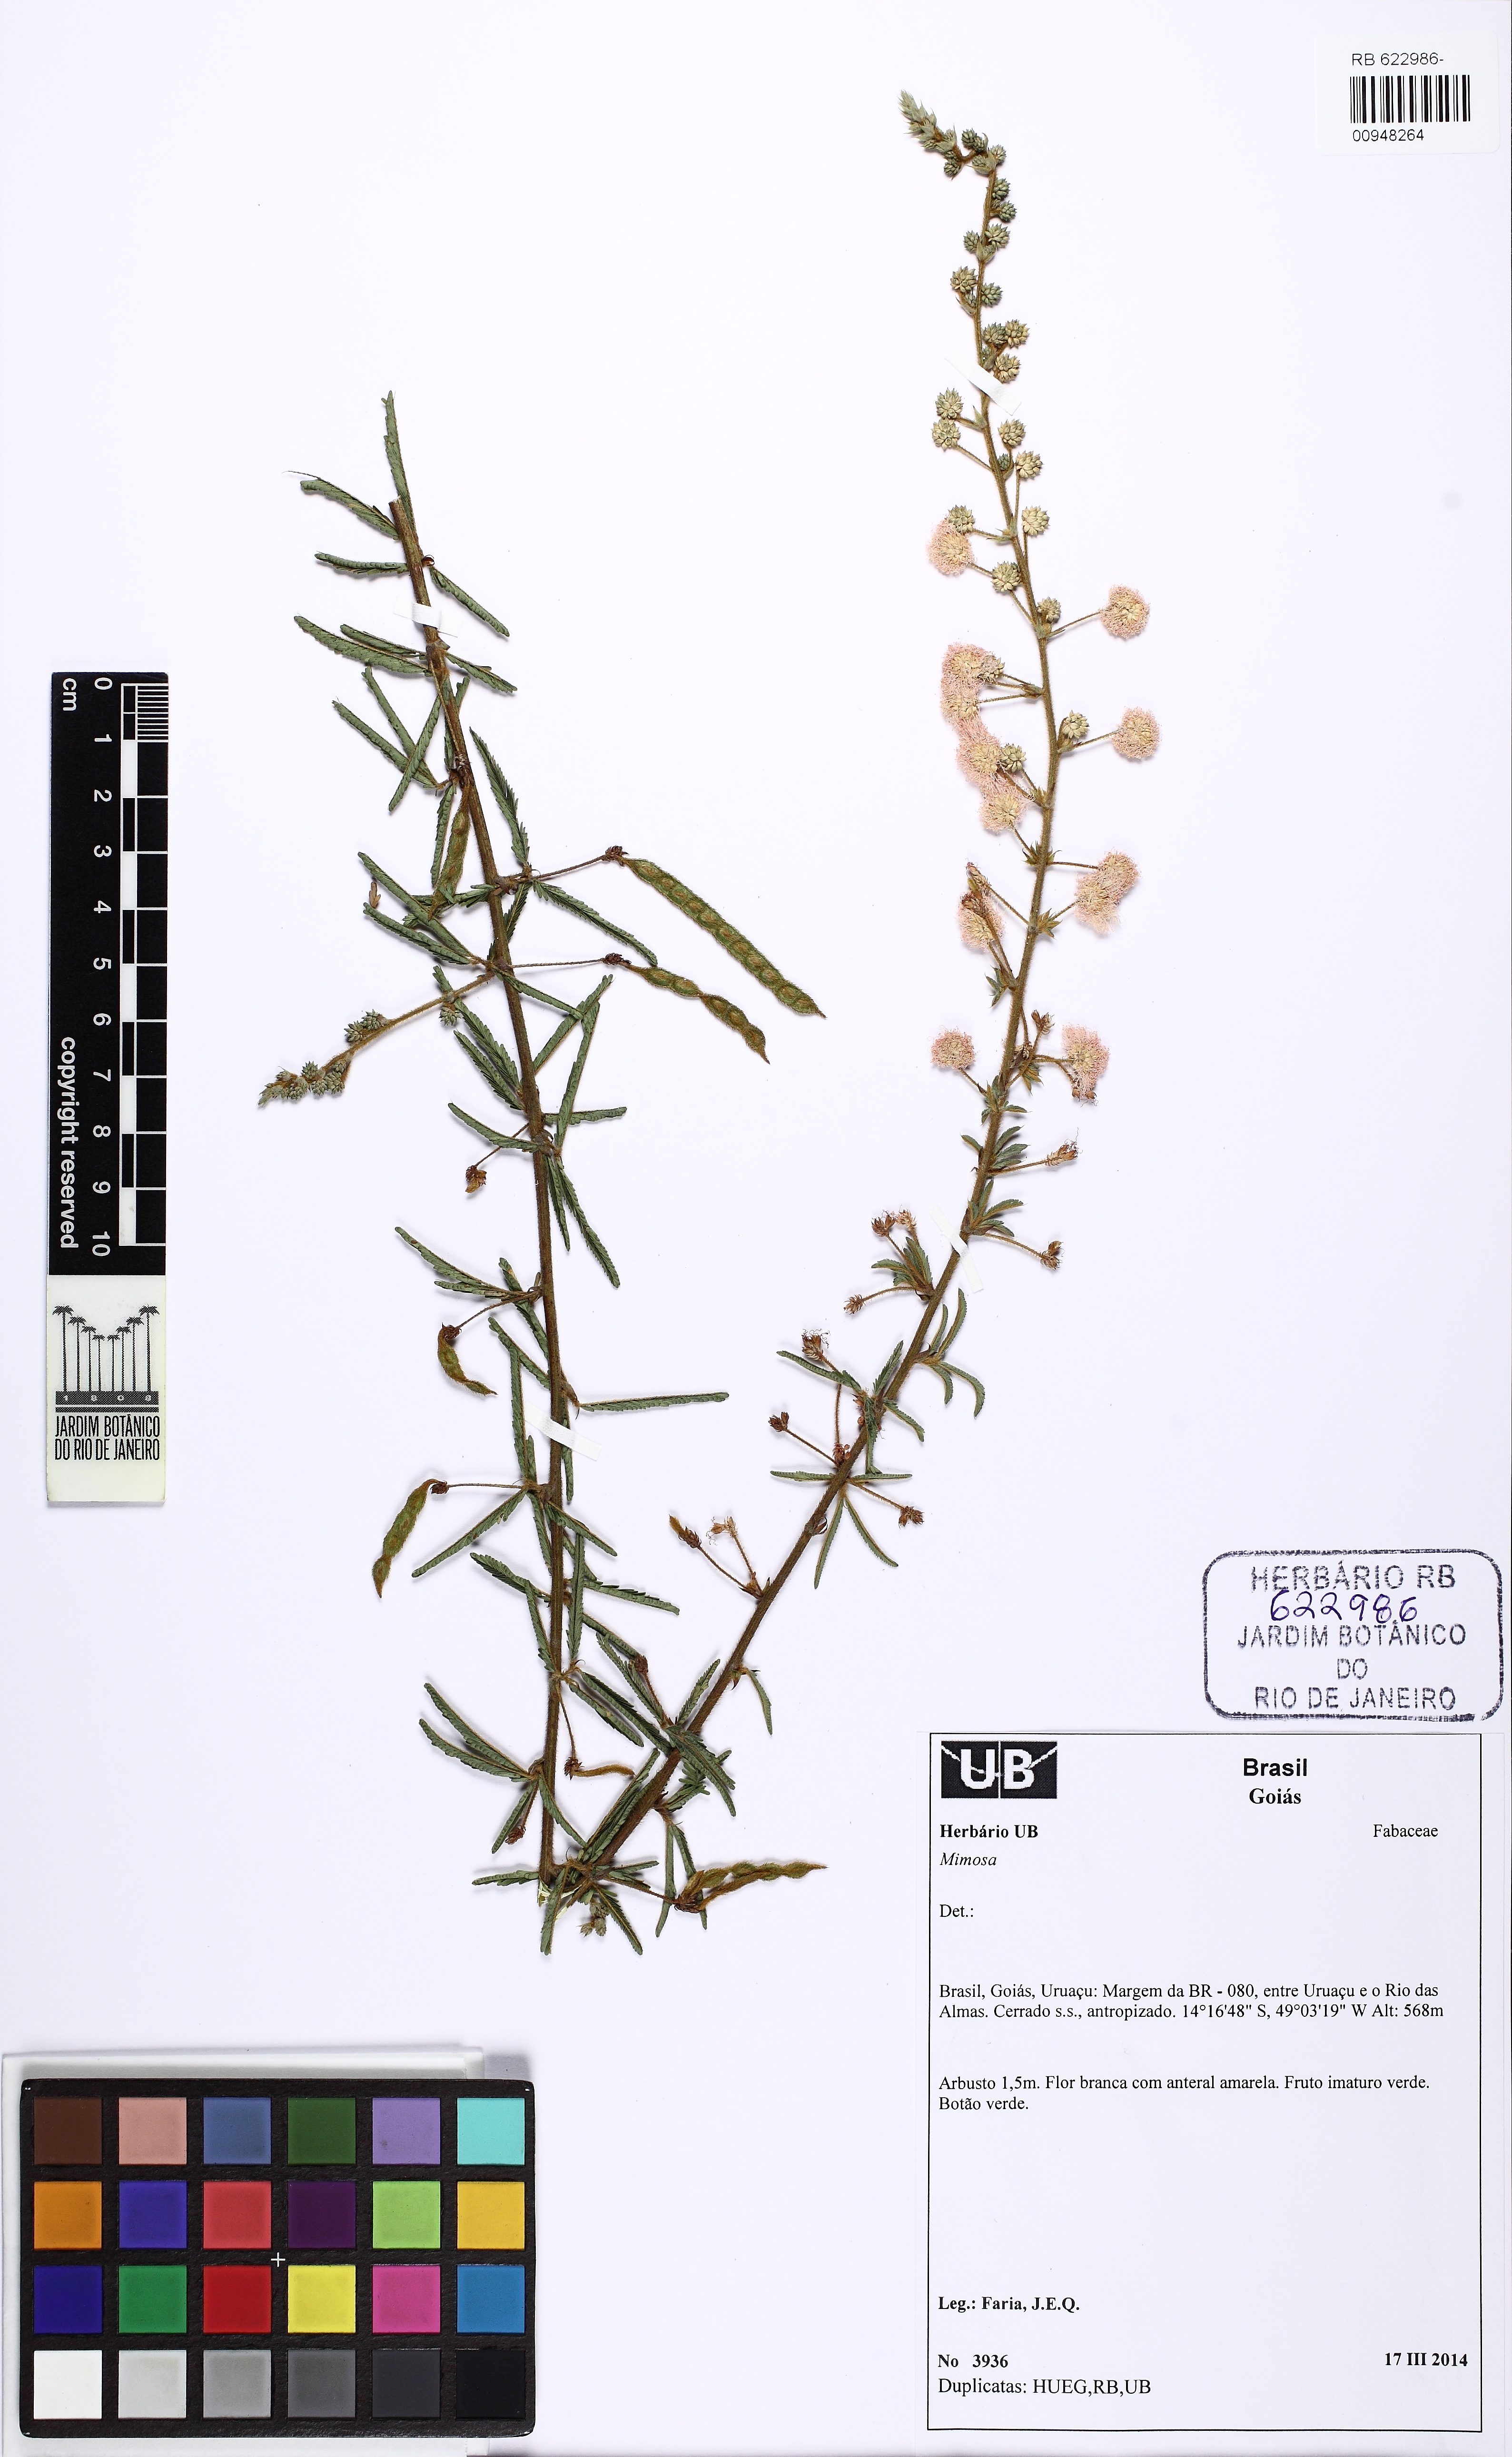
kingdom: Plantae
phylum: Tracheophyta
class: Magnoliopsida
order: Fabales
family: Fabaceae
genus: Mimosa
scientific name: Mimosa
